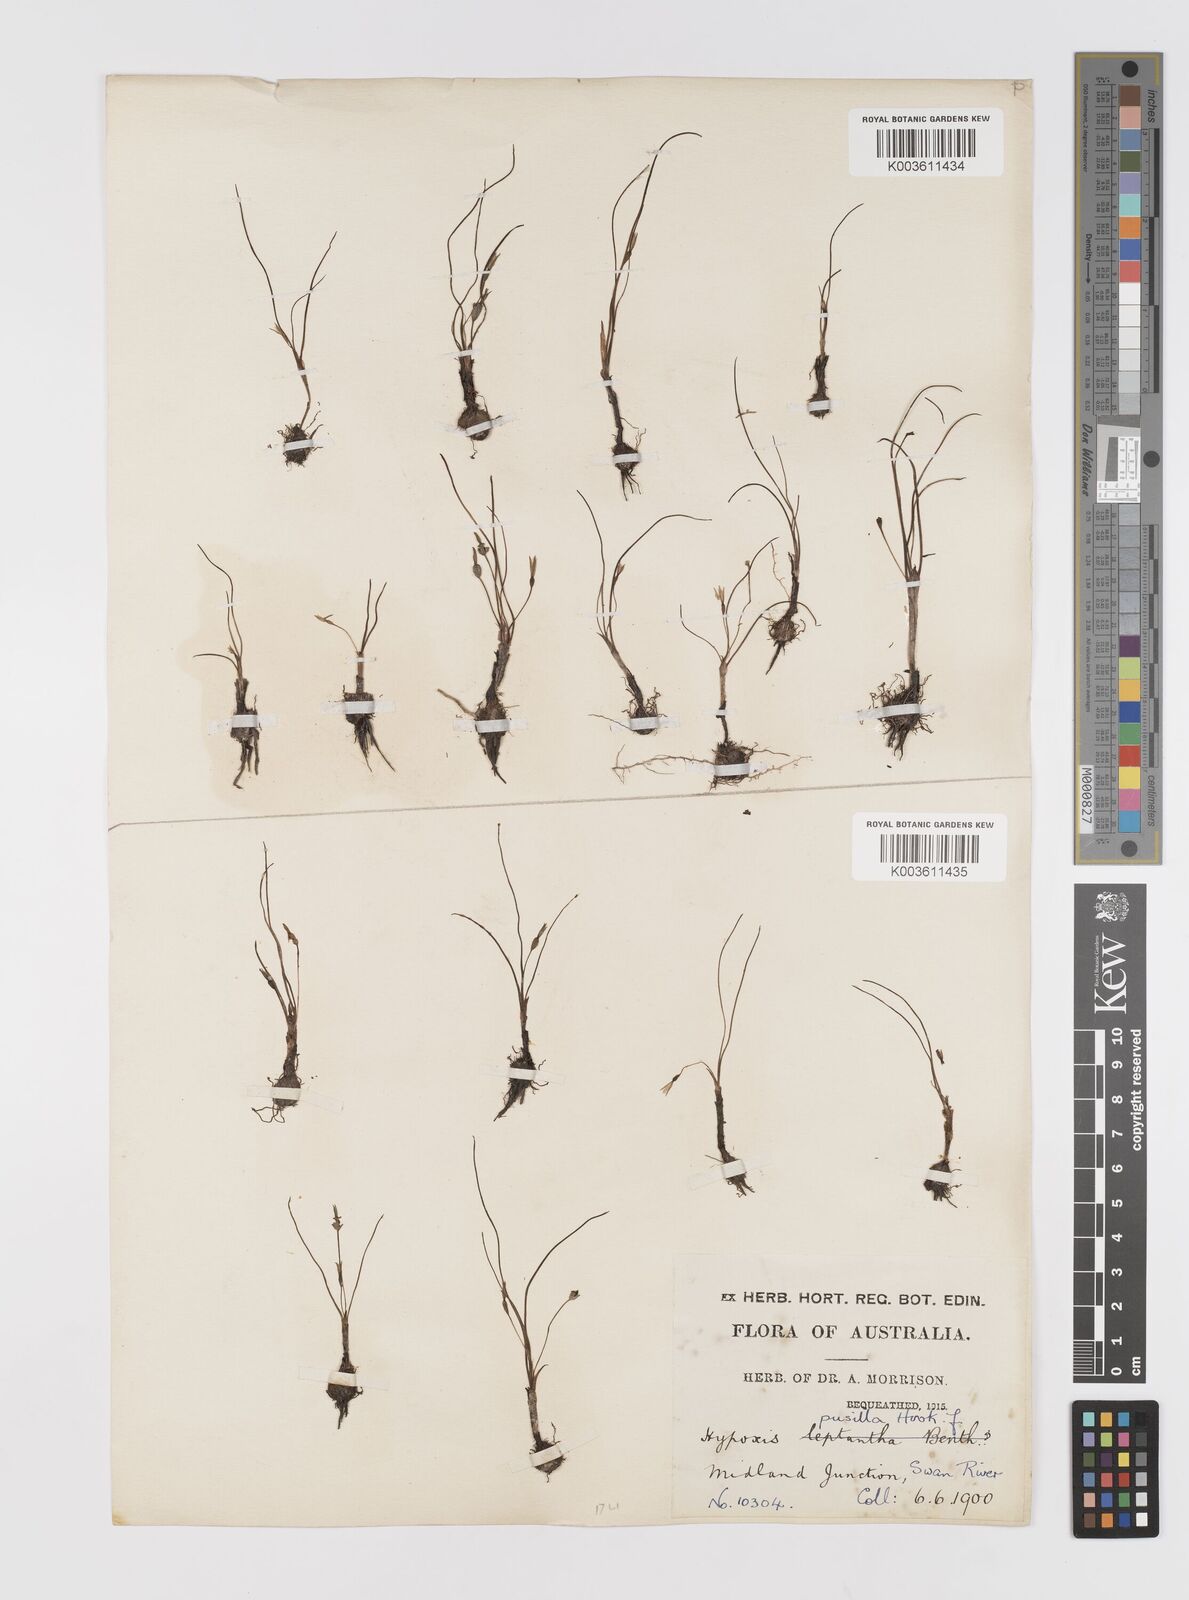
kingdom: Plantae
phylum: Tracheophyta
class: Liliopsida
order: Asparagales
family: Hypoxidaceae
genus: Pauridia
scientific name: Pauridia glabella
